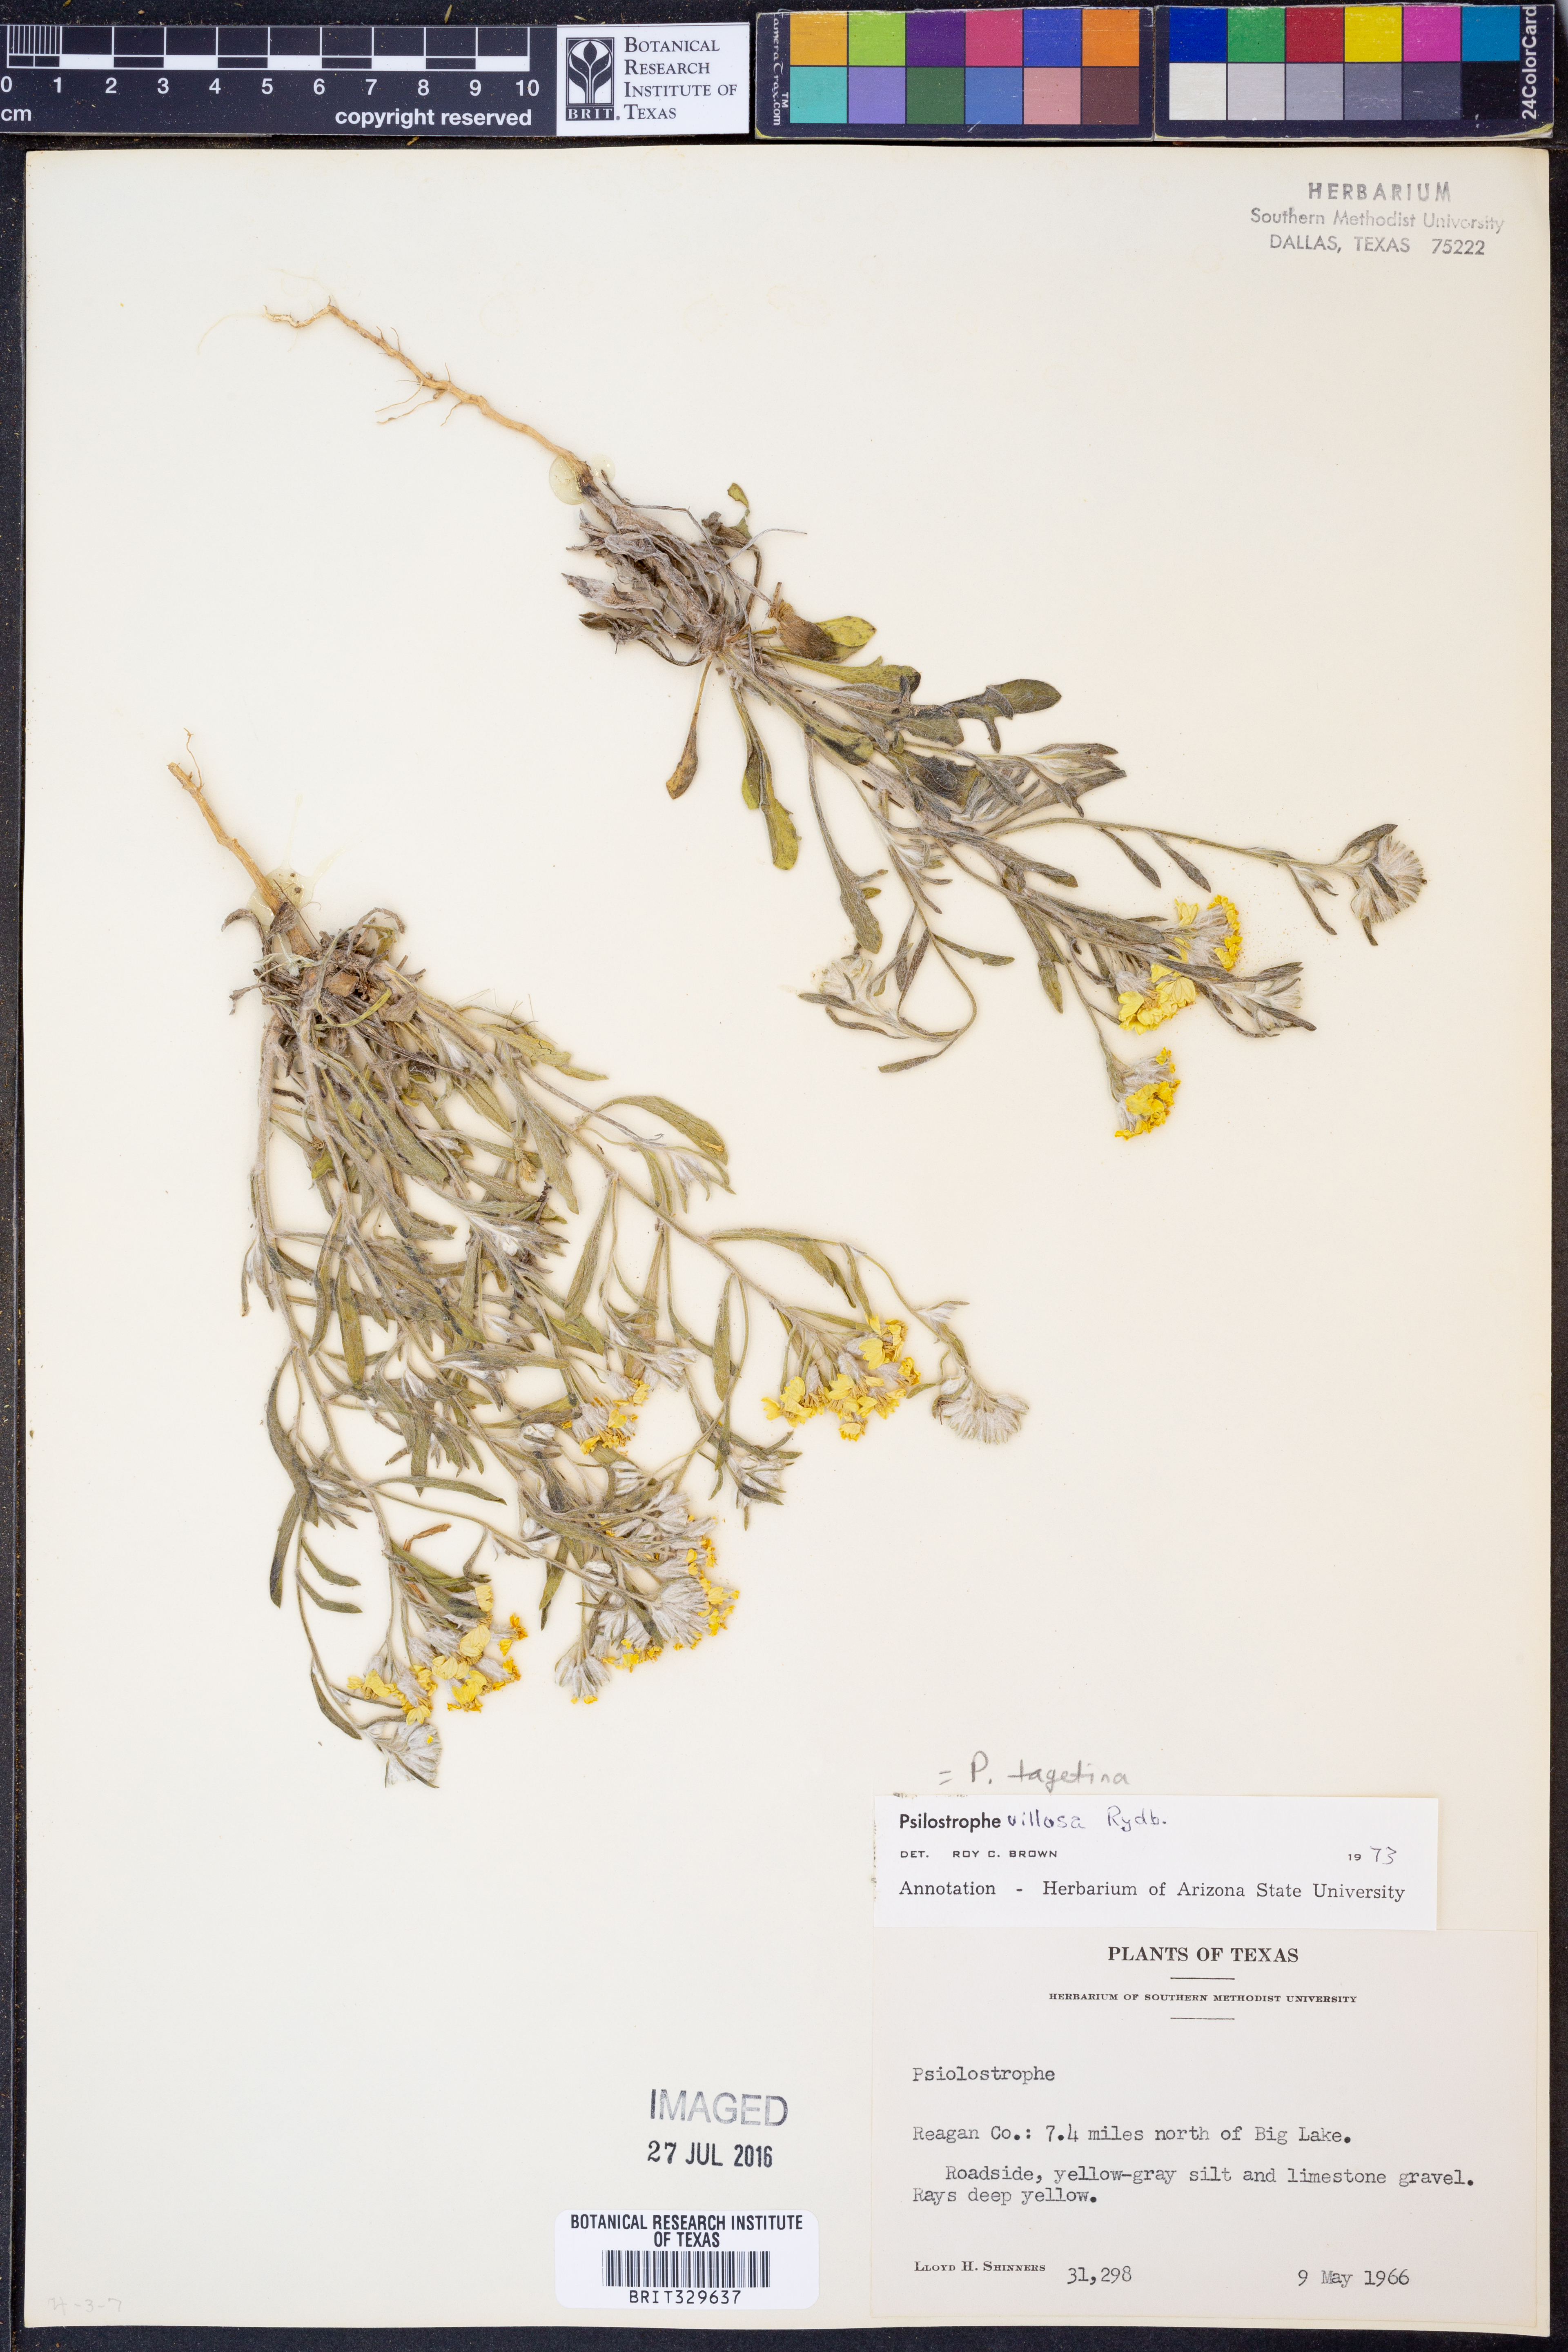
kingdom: Plantae
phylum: Tracheophyta
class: Magnoliopsida
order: Asterales
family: Asteraceae
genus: Psilostrophe
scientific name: Psilostrophe tagetina
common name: Marigold paper-flower
